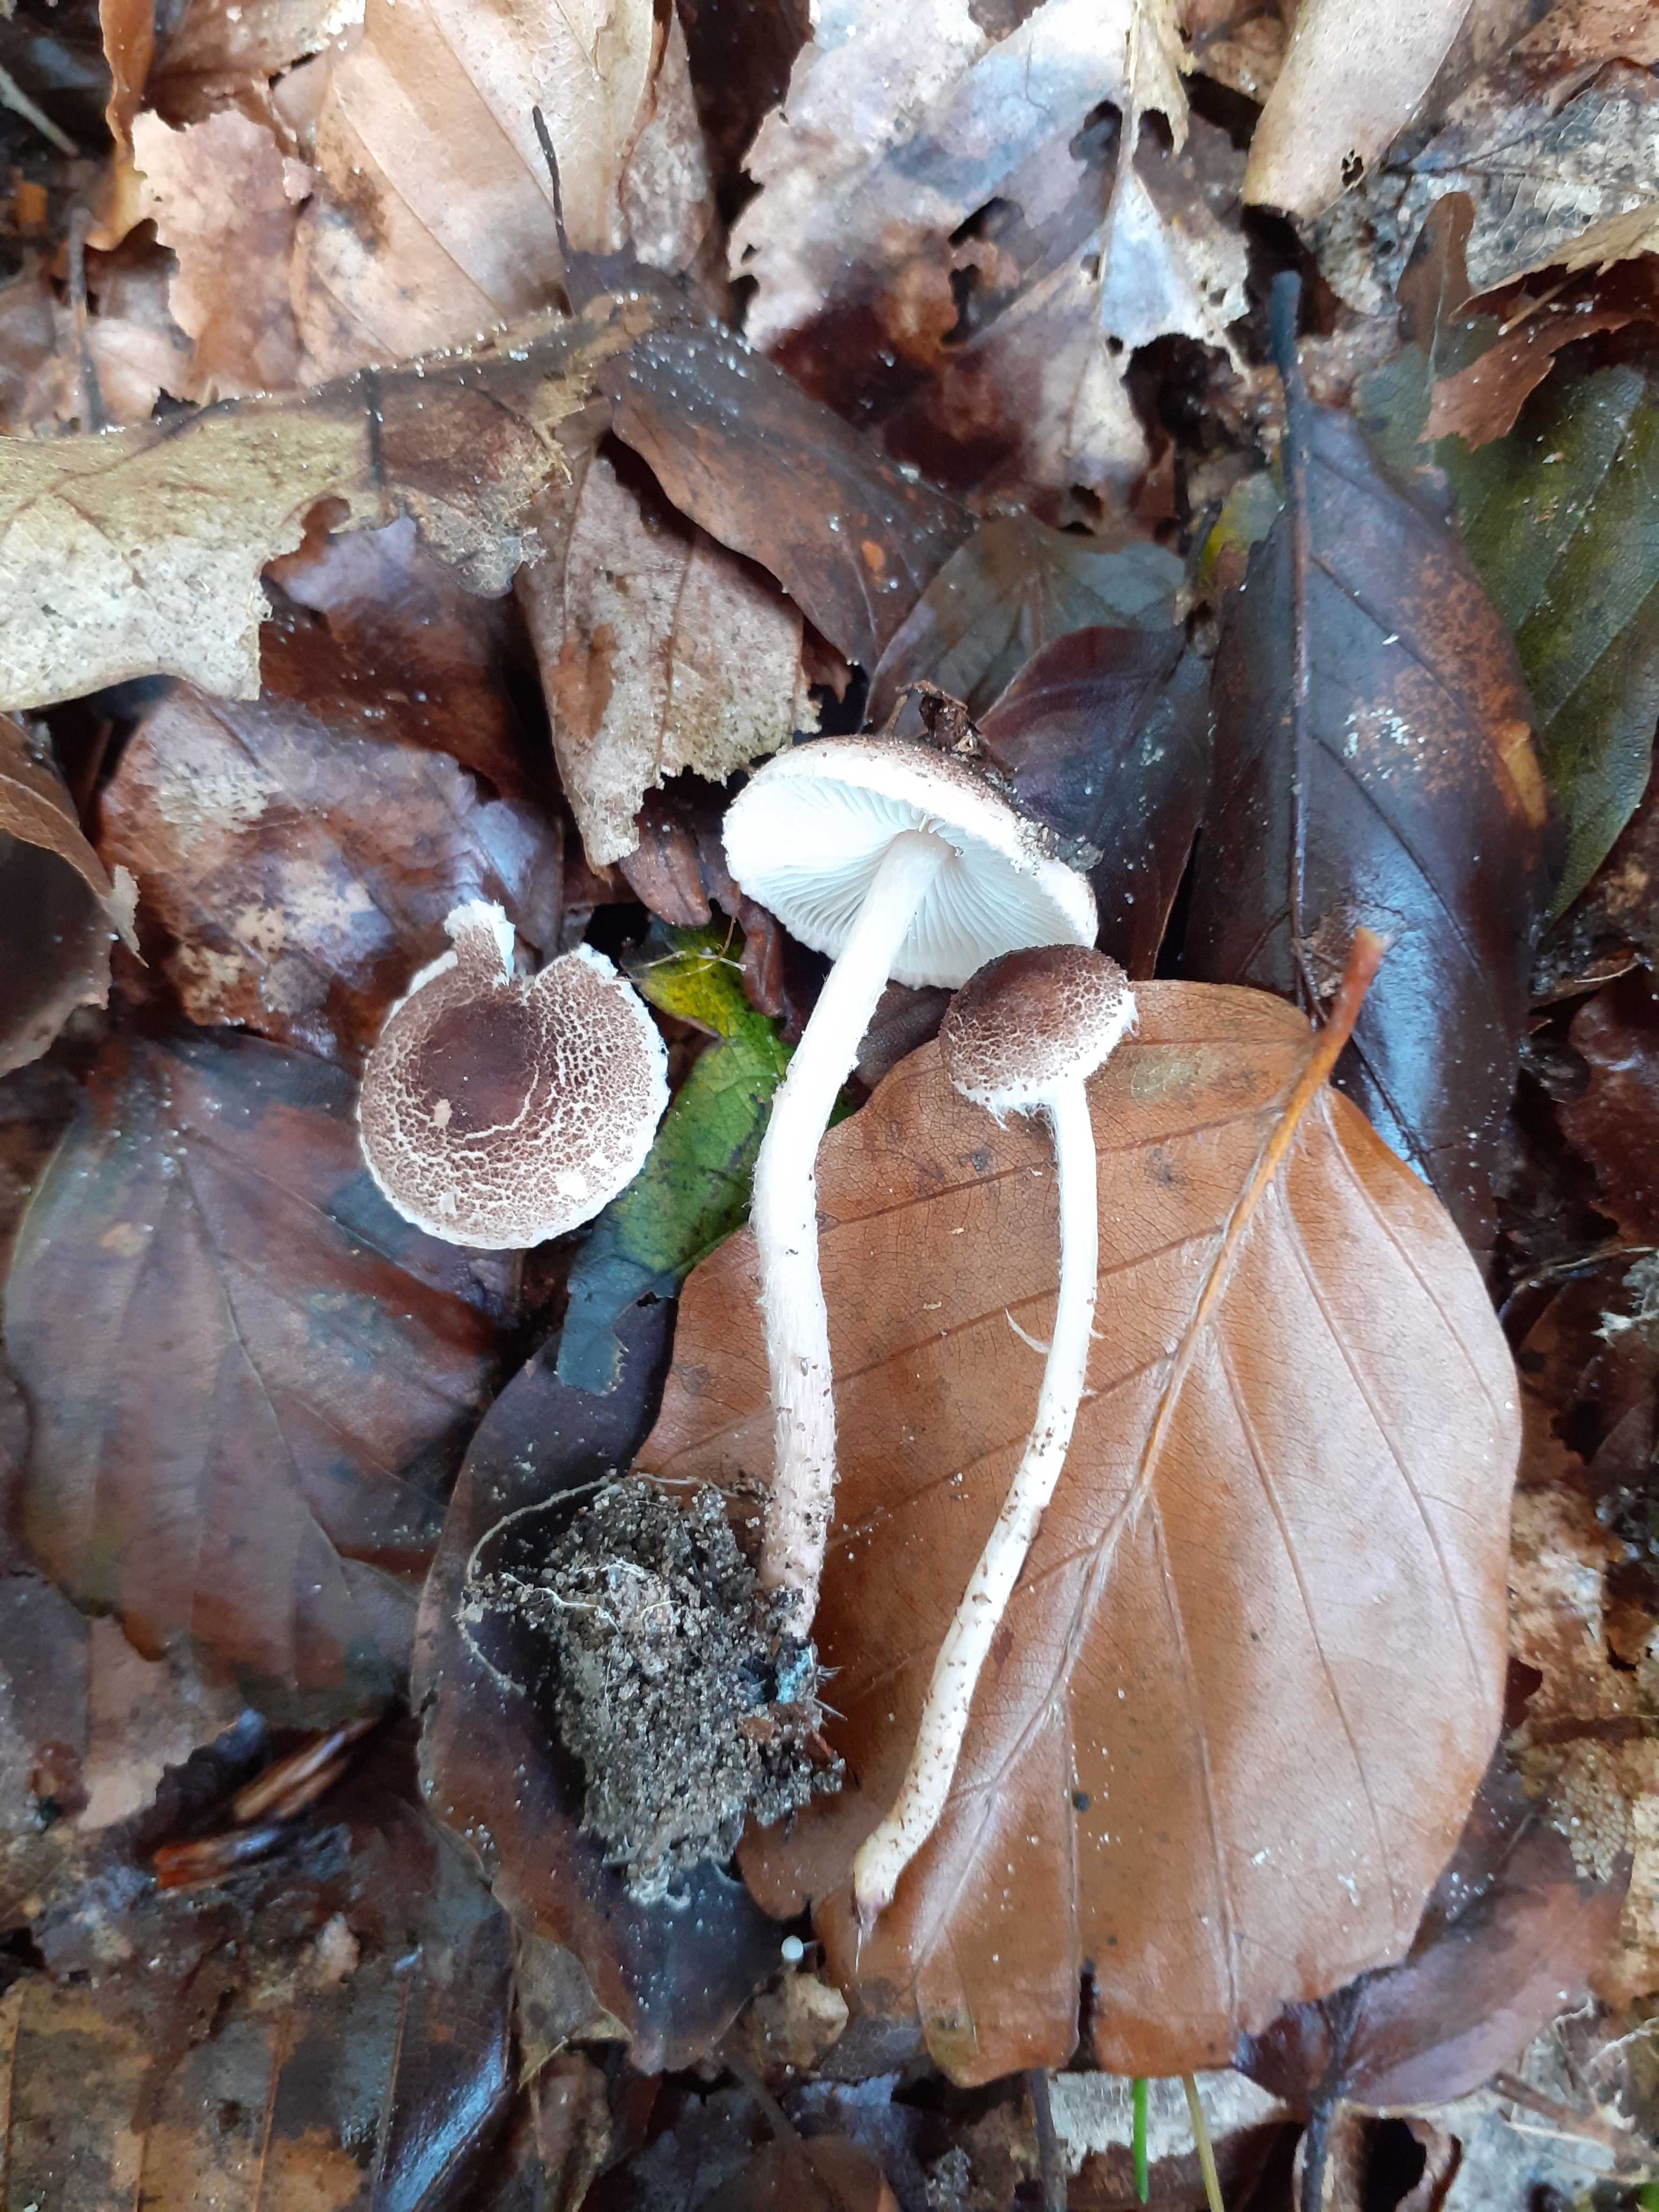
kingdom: Fungi
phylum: Basidiomycota
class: Agaricomycetes
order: Agaricales
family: Agaricaceae
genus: Lepiota
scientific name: Lepiota echinella
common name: finskællet parasolhat
